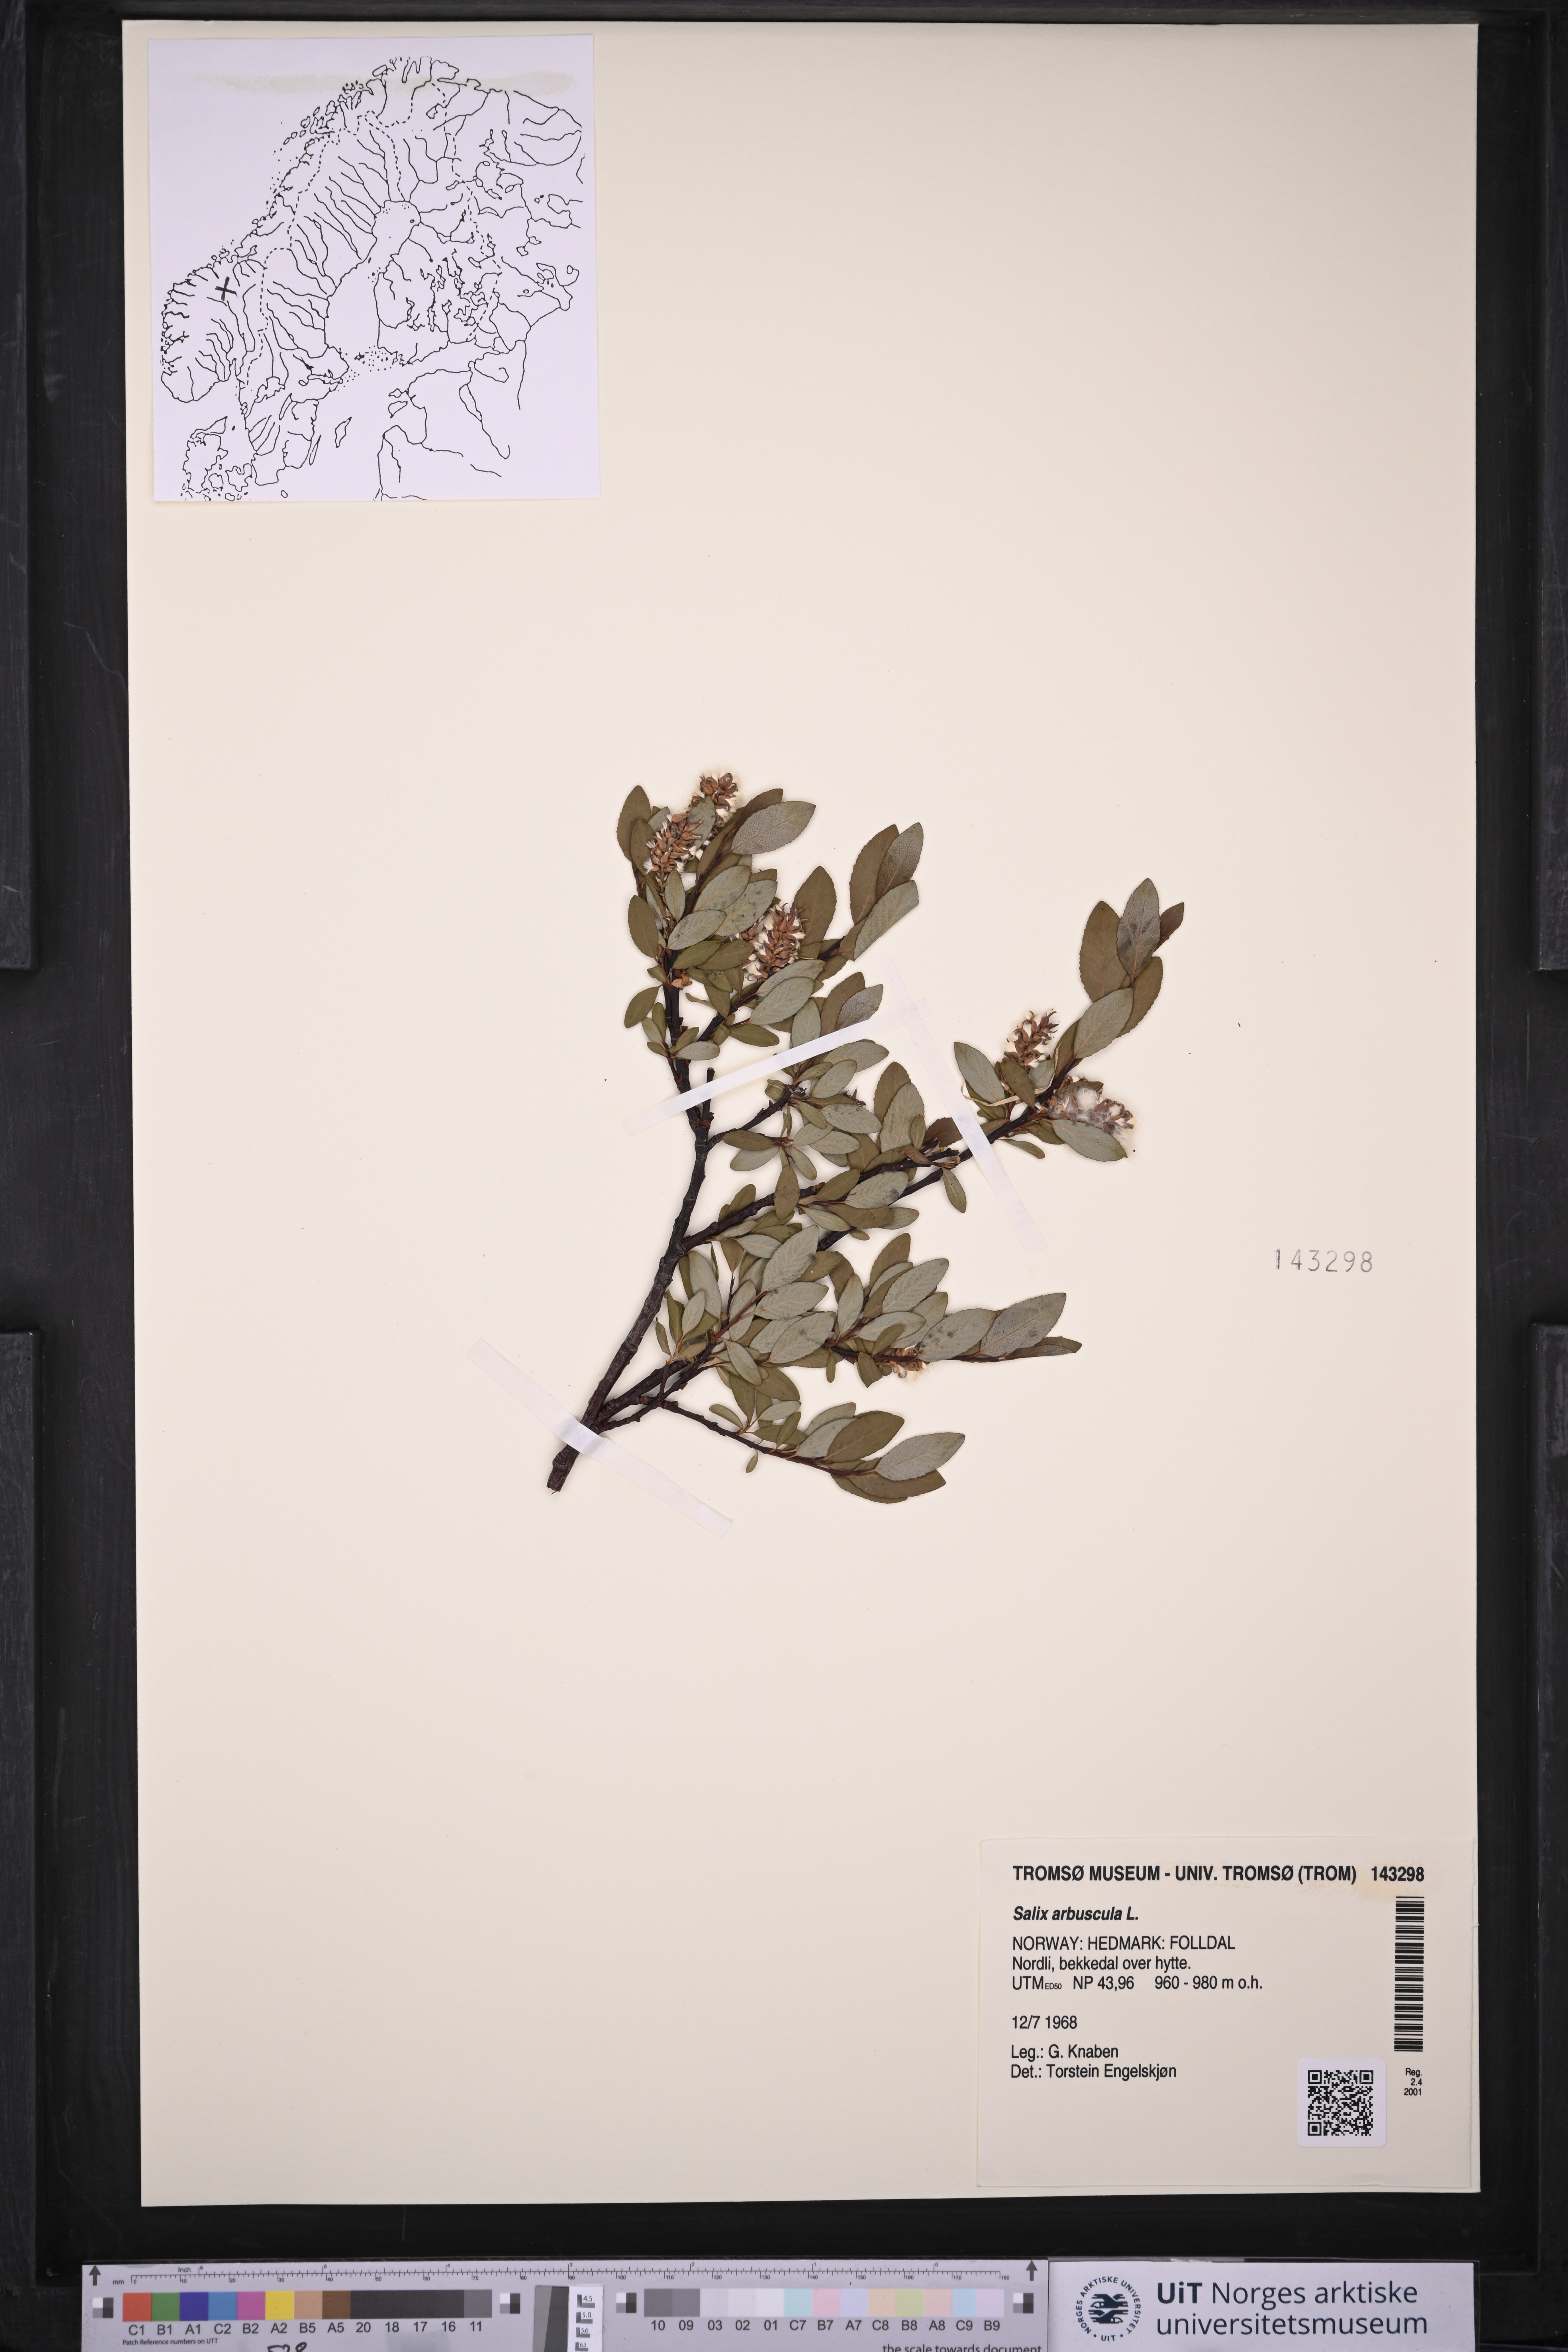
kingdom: Plantae
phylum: Tracheophyta
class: Magnoliopsida
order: Malpighiales
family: Salicaceae
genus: Salix
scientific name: Salix arbuscula
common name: Mountain willow
